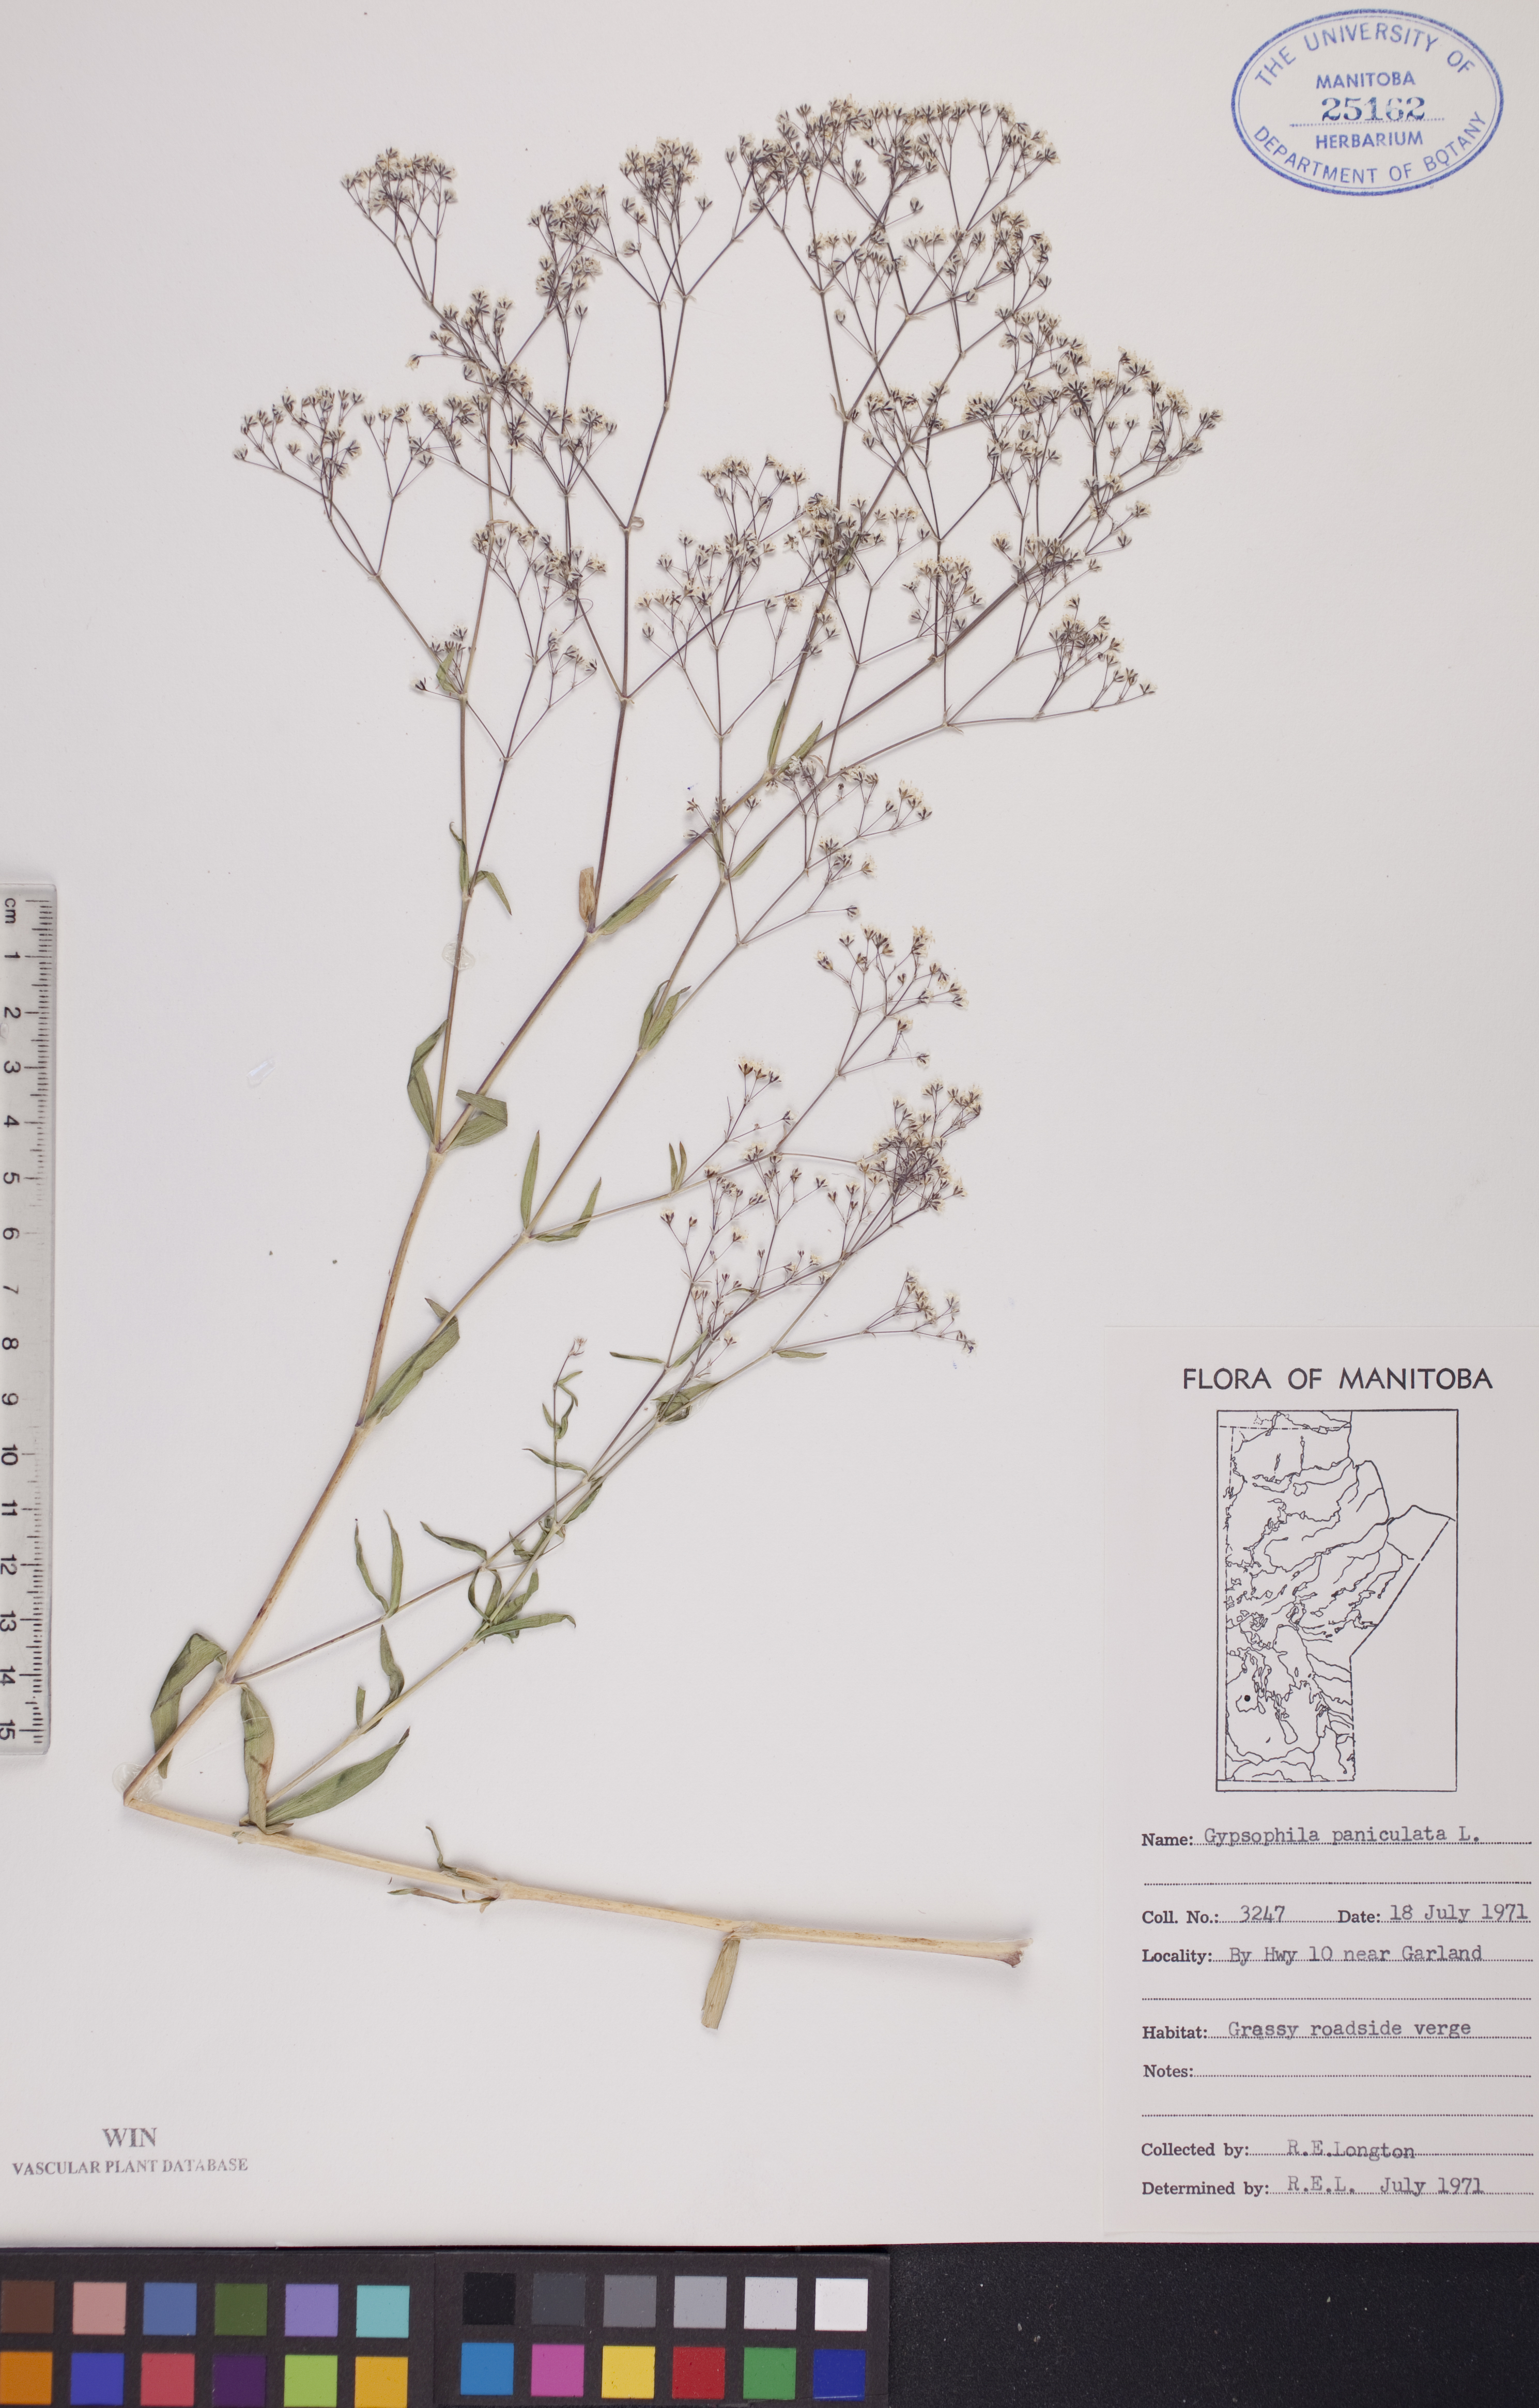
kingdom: Plantae
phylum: Tracheophyta
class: Magnoliopsida
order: Caryophyllales
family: Caryophyllaceae
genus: Gypsophila
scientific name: Gypsophila paniculata
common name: Baby's-breath
